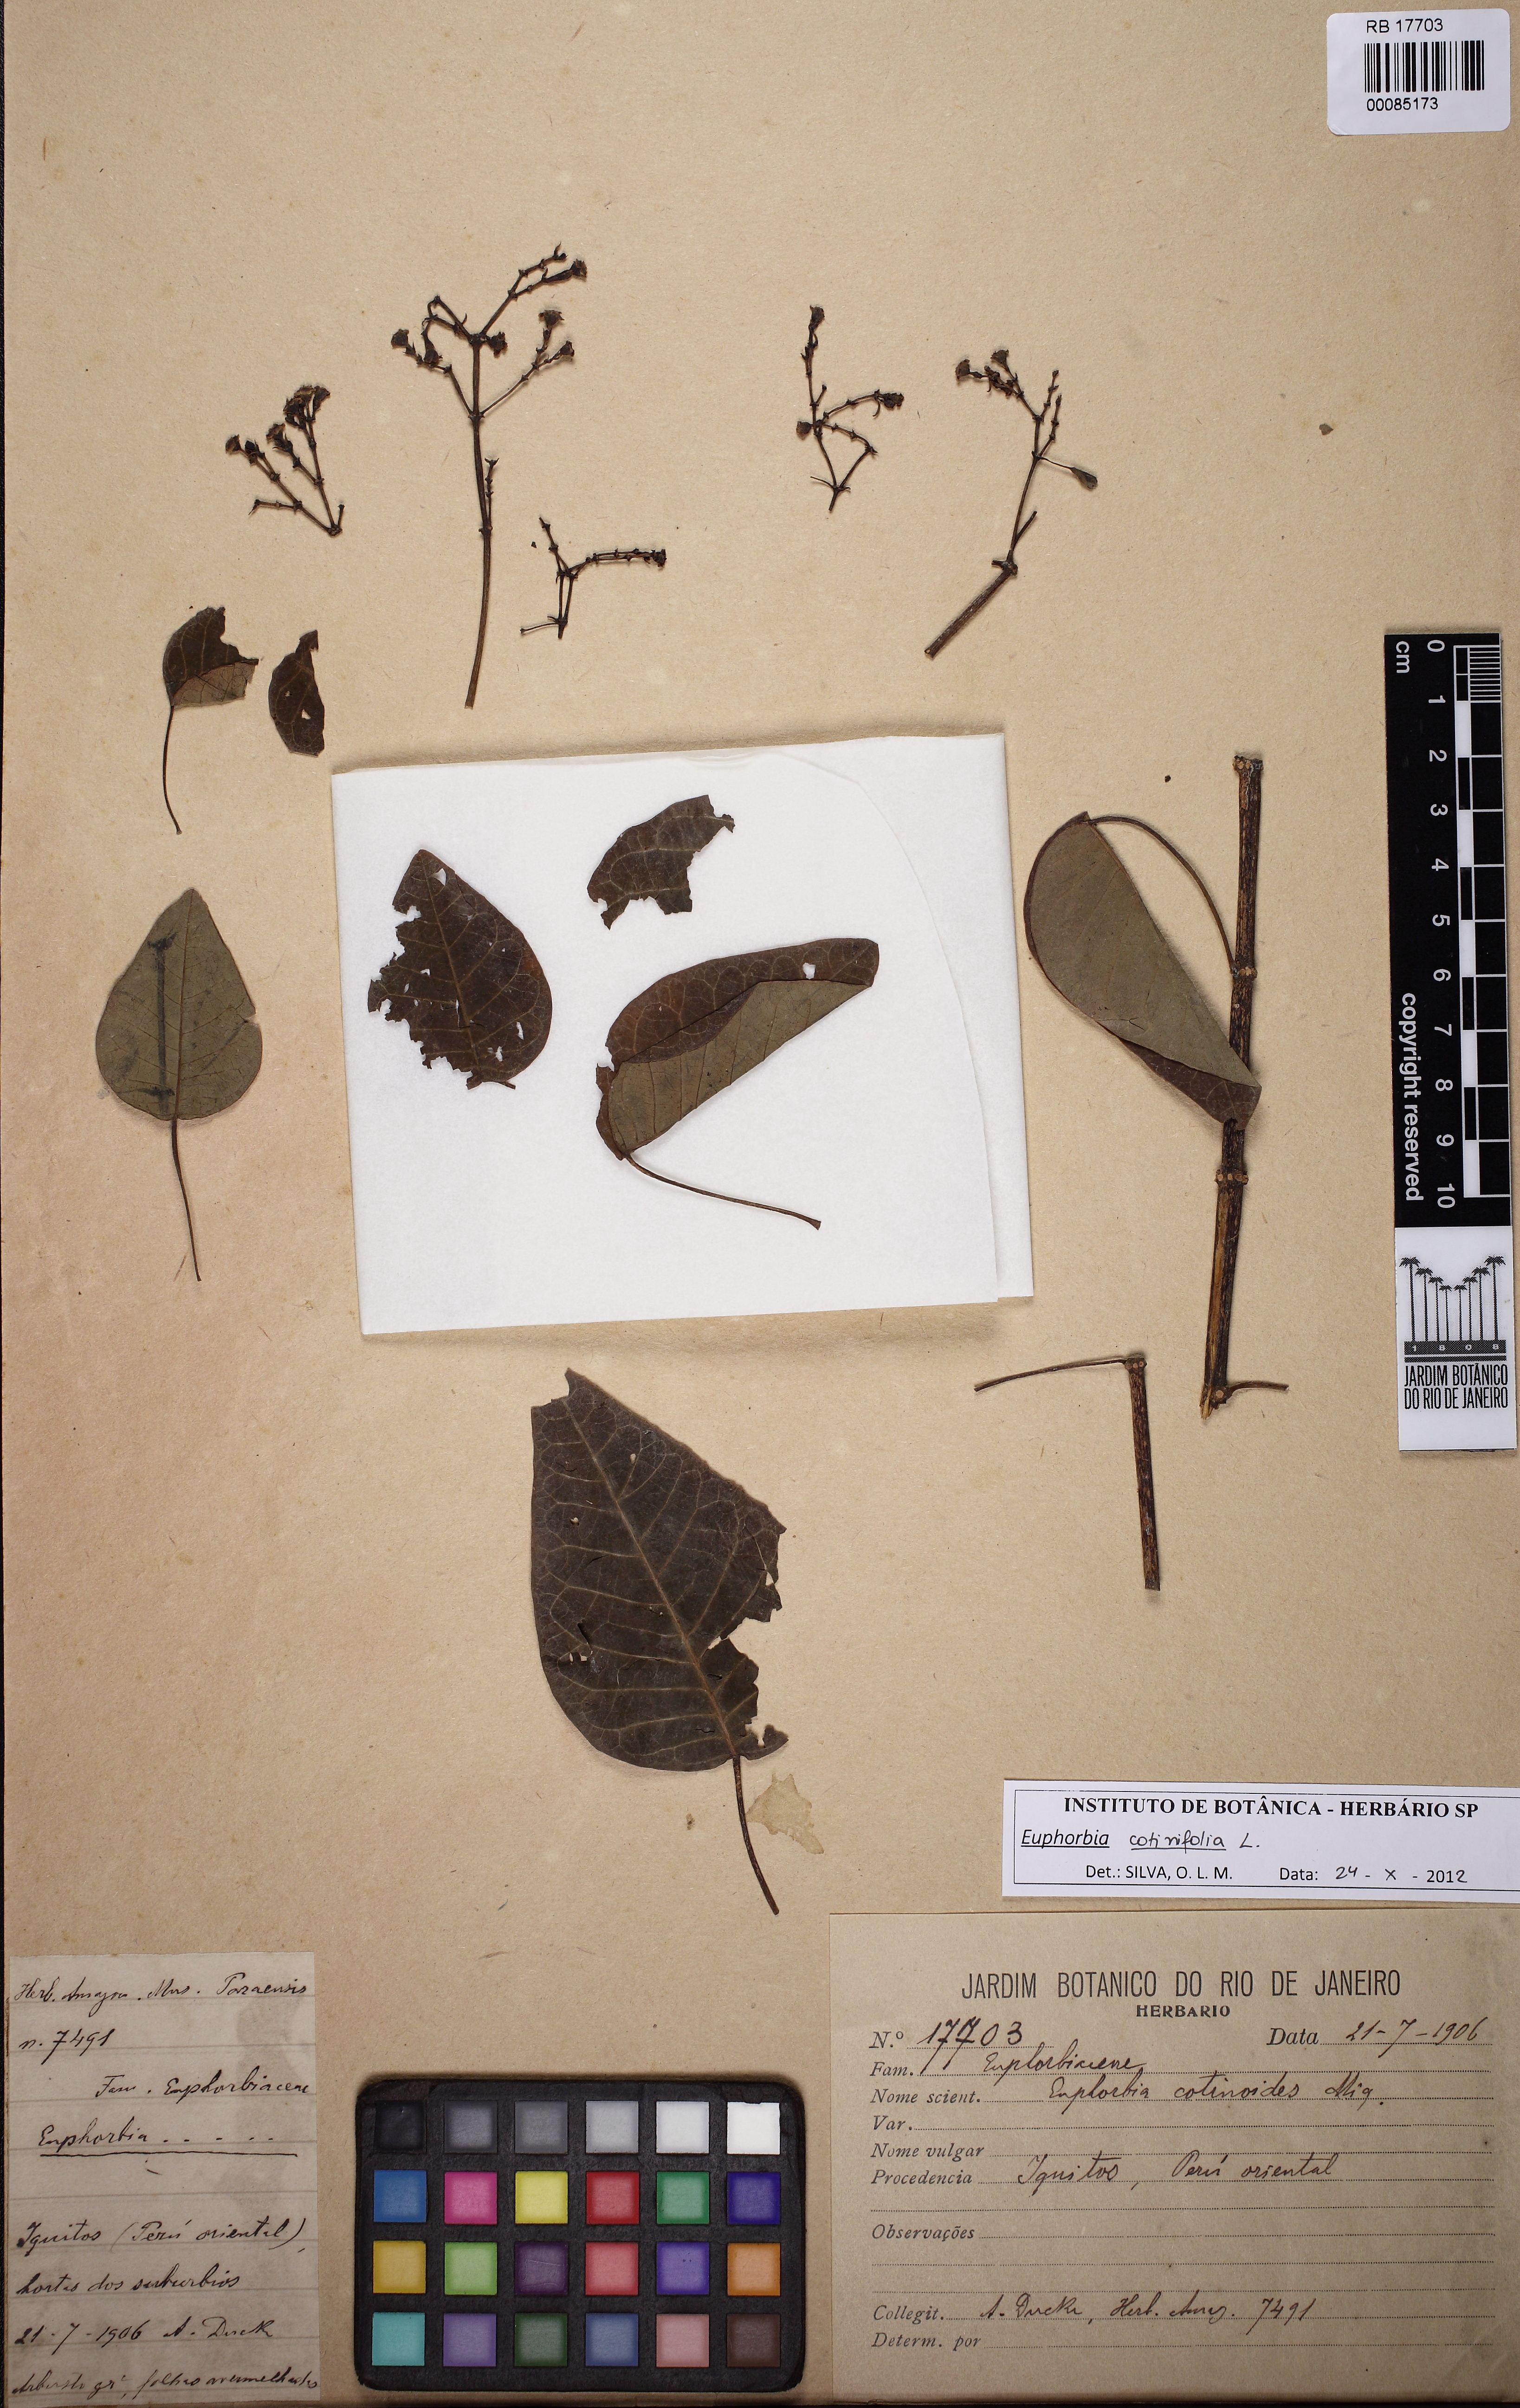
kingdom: Plantae
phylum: Tracheophyta
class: Magnoliopsida
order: Malpighiales
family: Euphorbiaceae
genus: Euphorbia
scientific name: Euphorbia cotinifolia
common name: Tropical smokebush
